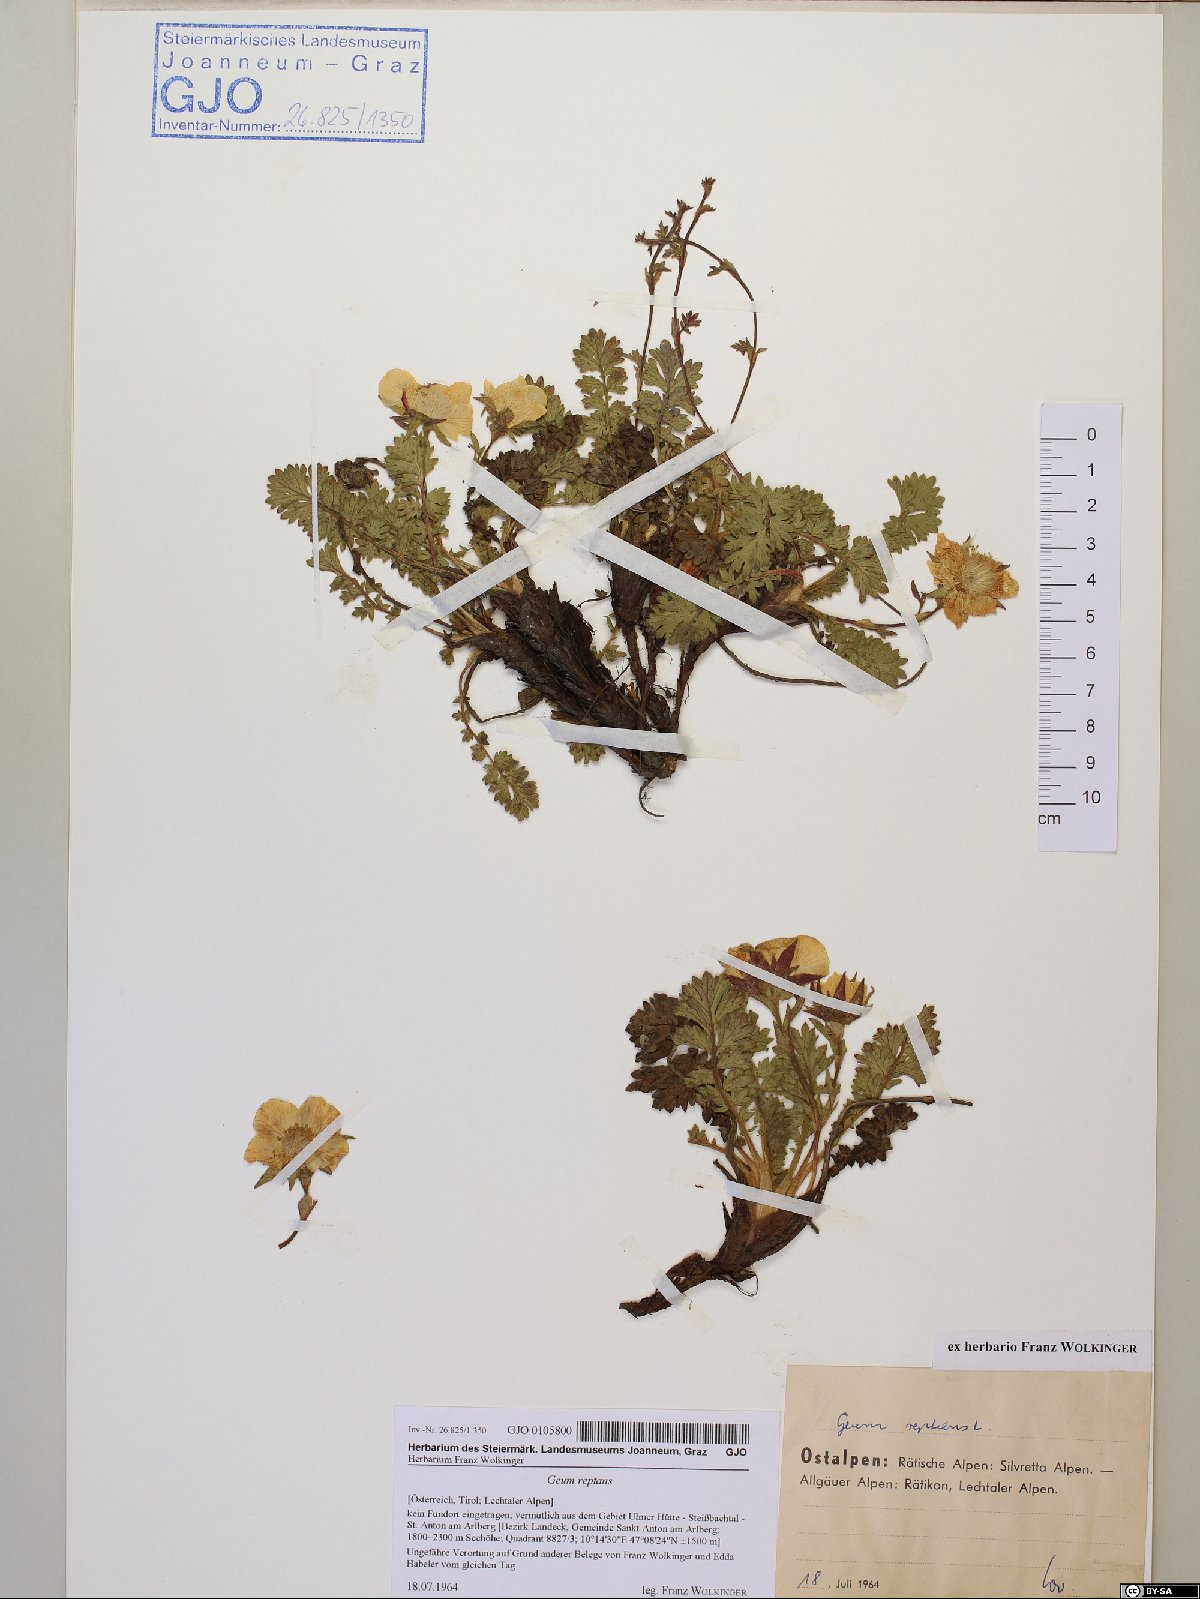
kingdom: Plantae
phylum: Tracheophyta
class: Magnoliopsida
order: Rosales
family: Rosaceae
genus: Geum
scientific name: Geum reptans
